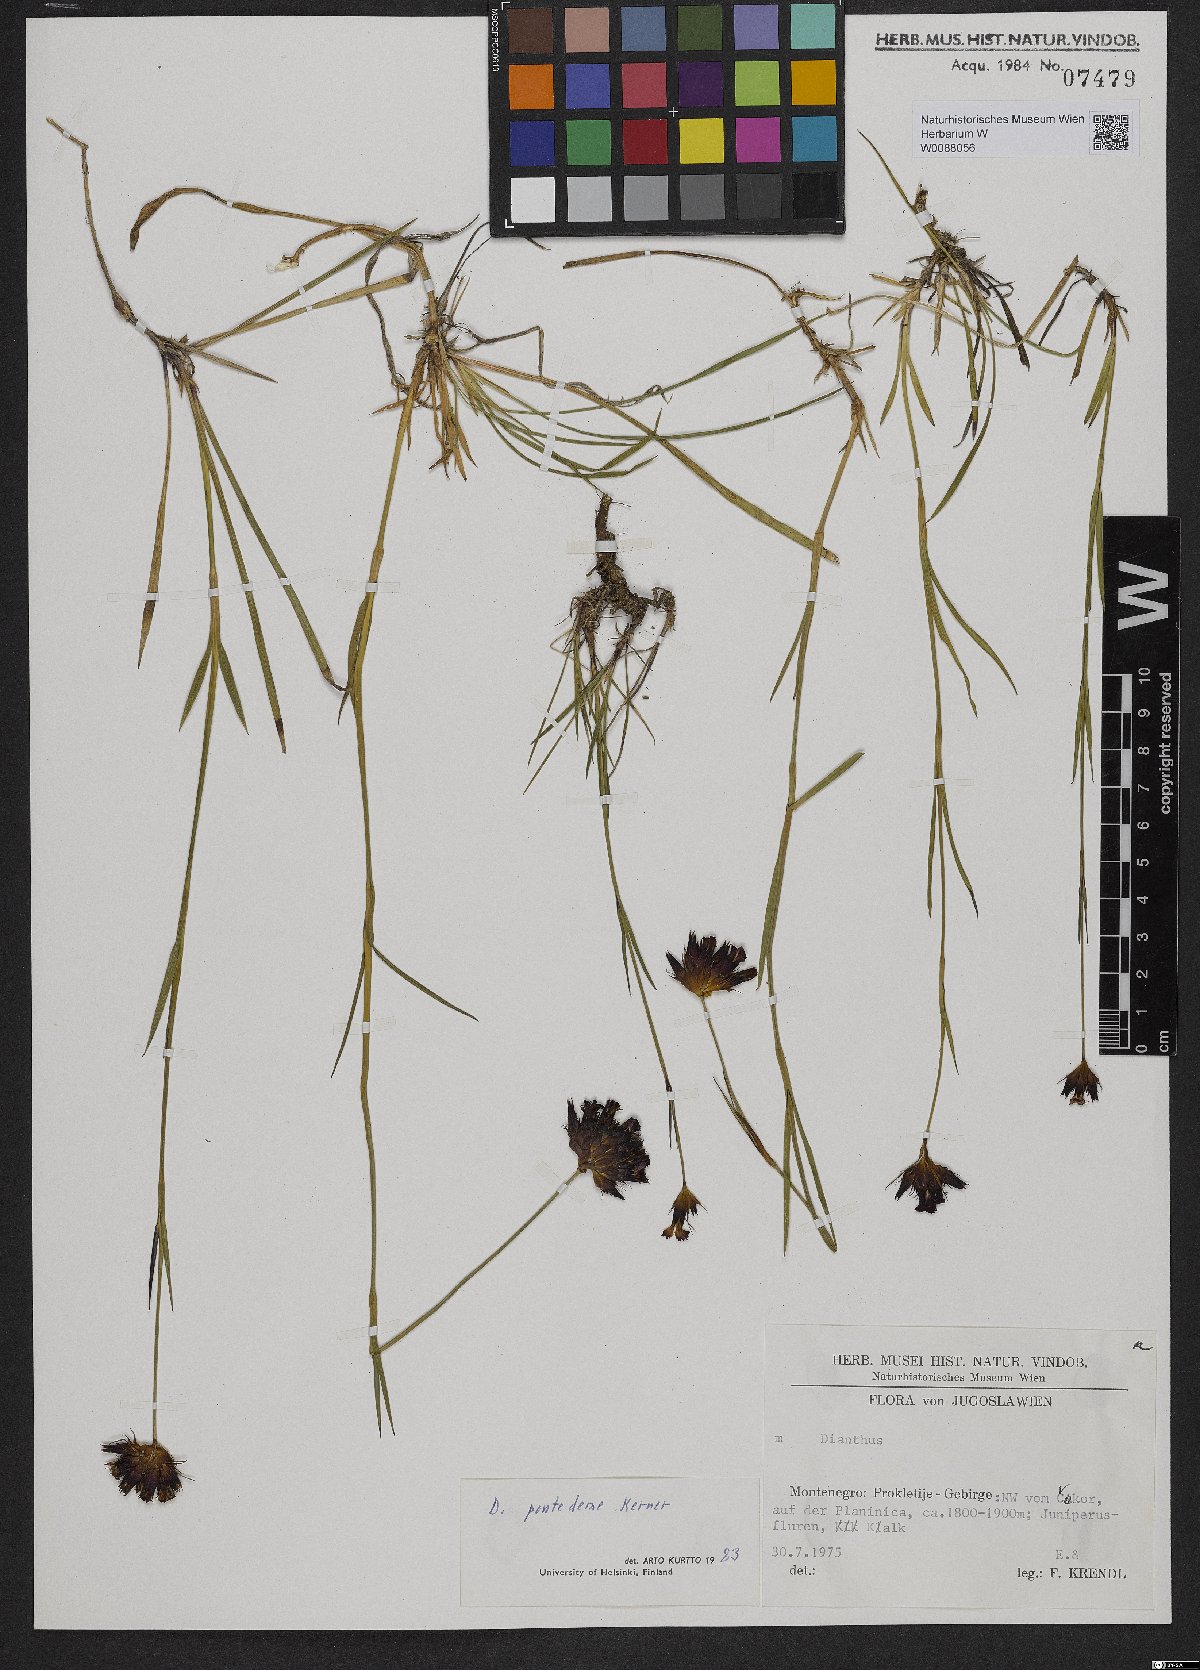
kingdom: Plantae
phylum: Tracheophyta
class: Magnoliopsida
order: Caryophyllales
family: Caryophyllaceae
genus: Dianthus
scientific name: Dianthus pontederae
